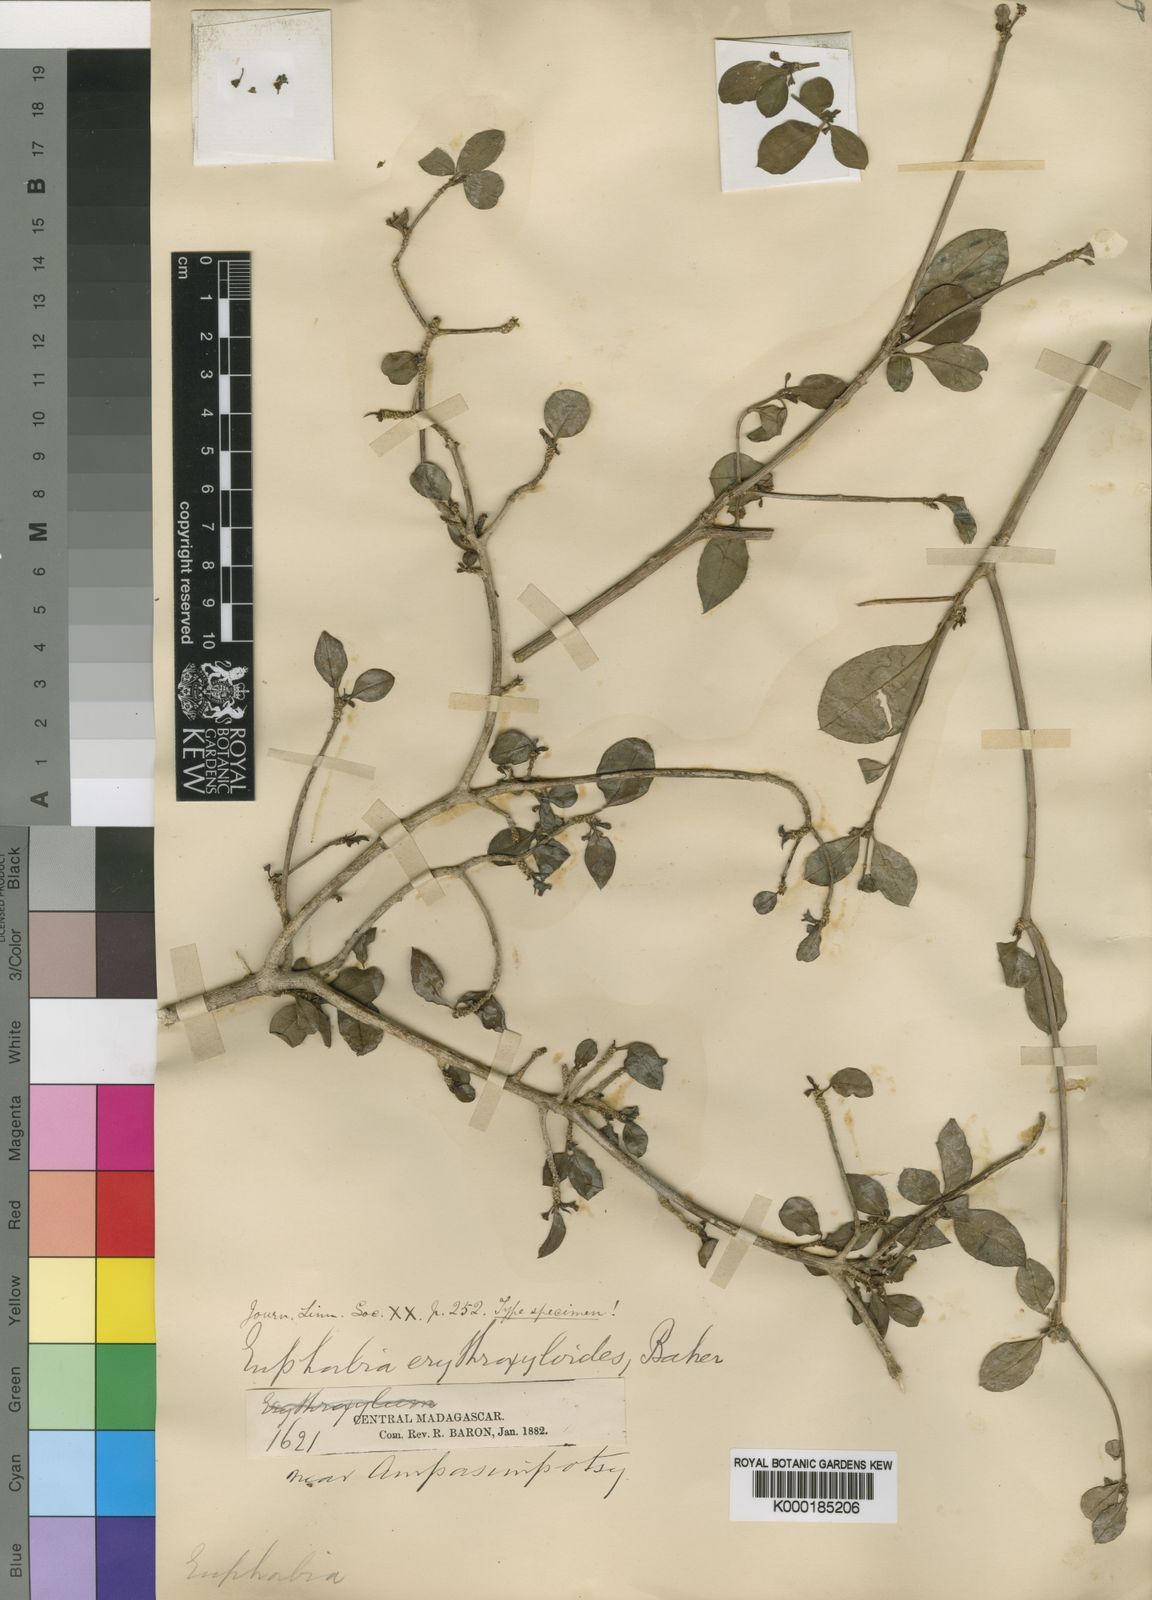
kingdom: Plantae
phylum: Tracheophyta
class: Magnoliopsida
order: Malpighiales
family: Euphorbiaceae
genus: Euphorbia
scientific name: Euphorbia erythroxyloides
